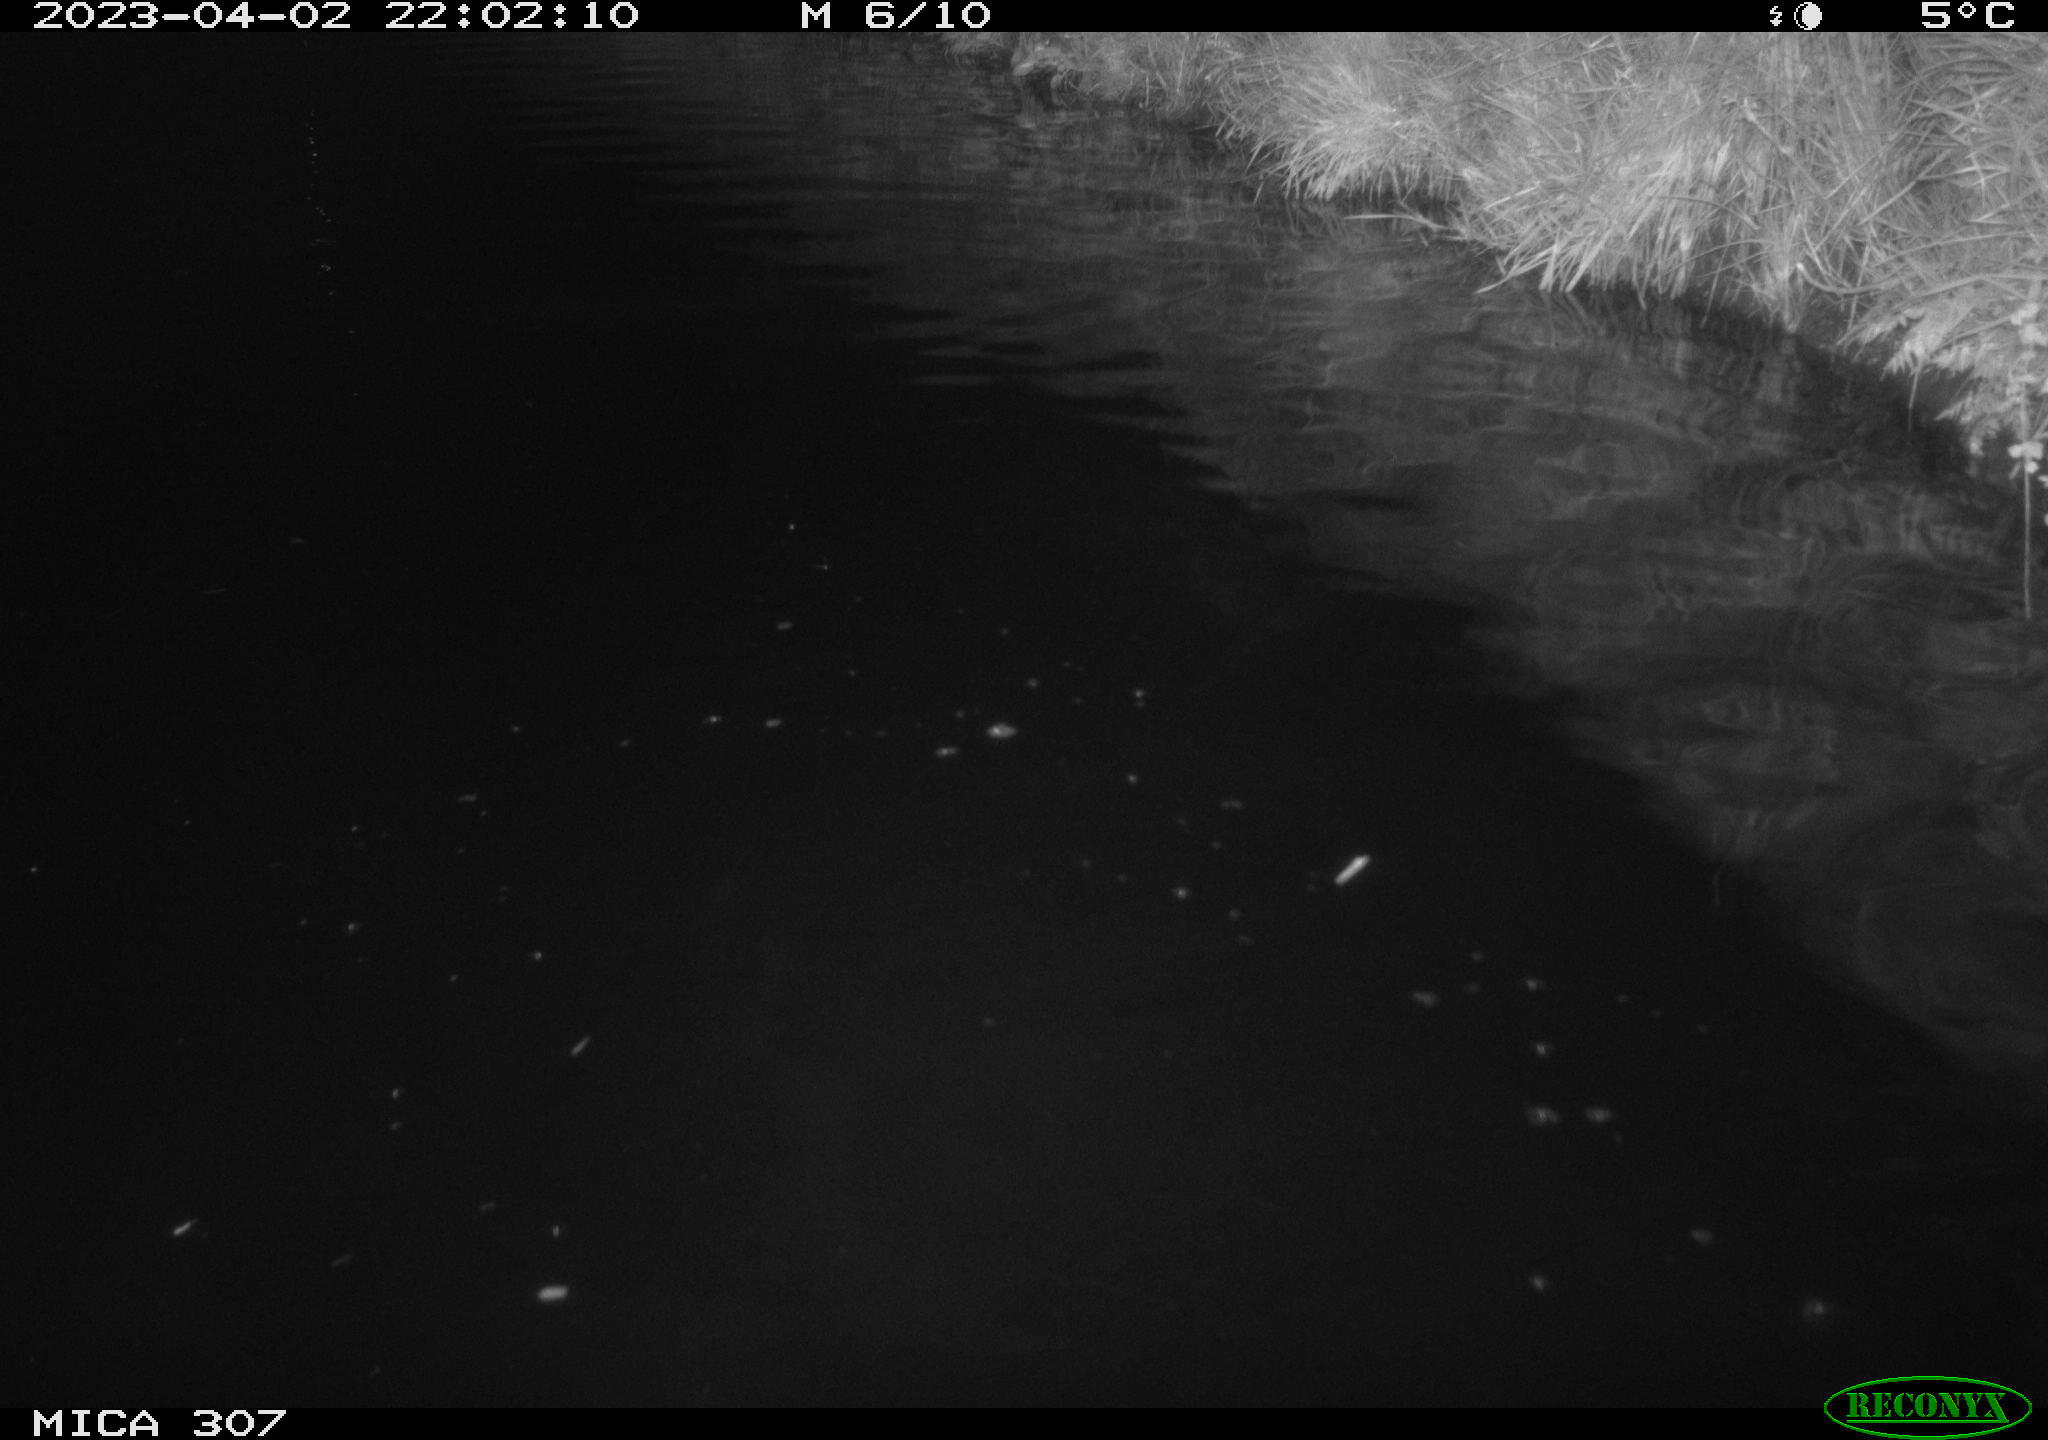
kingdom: Animalia
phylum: Chordata
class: Aves
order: Anseriformes
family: Anatidae
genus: Anas
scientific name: Anas
